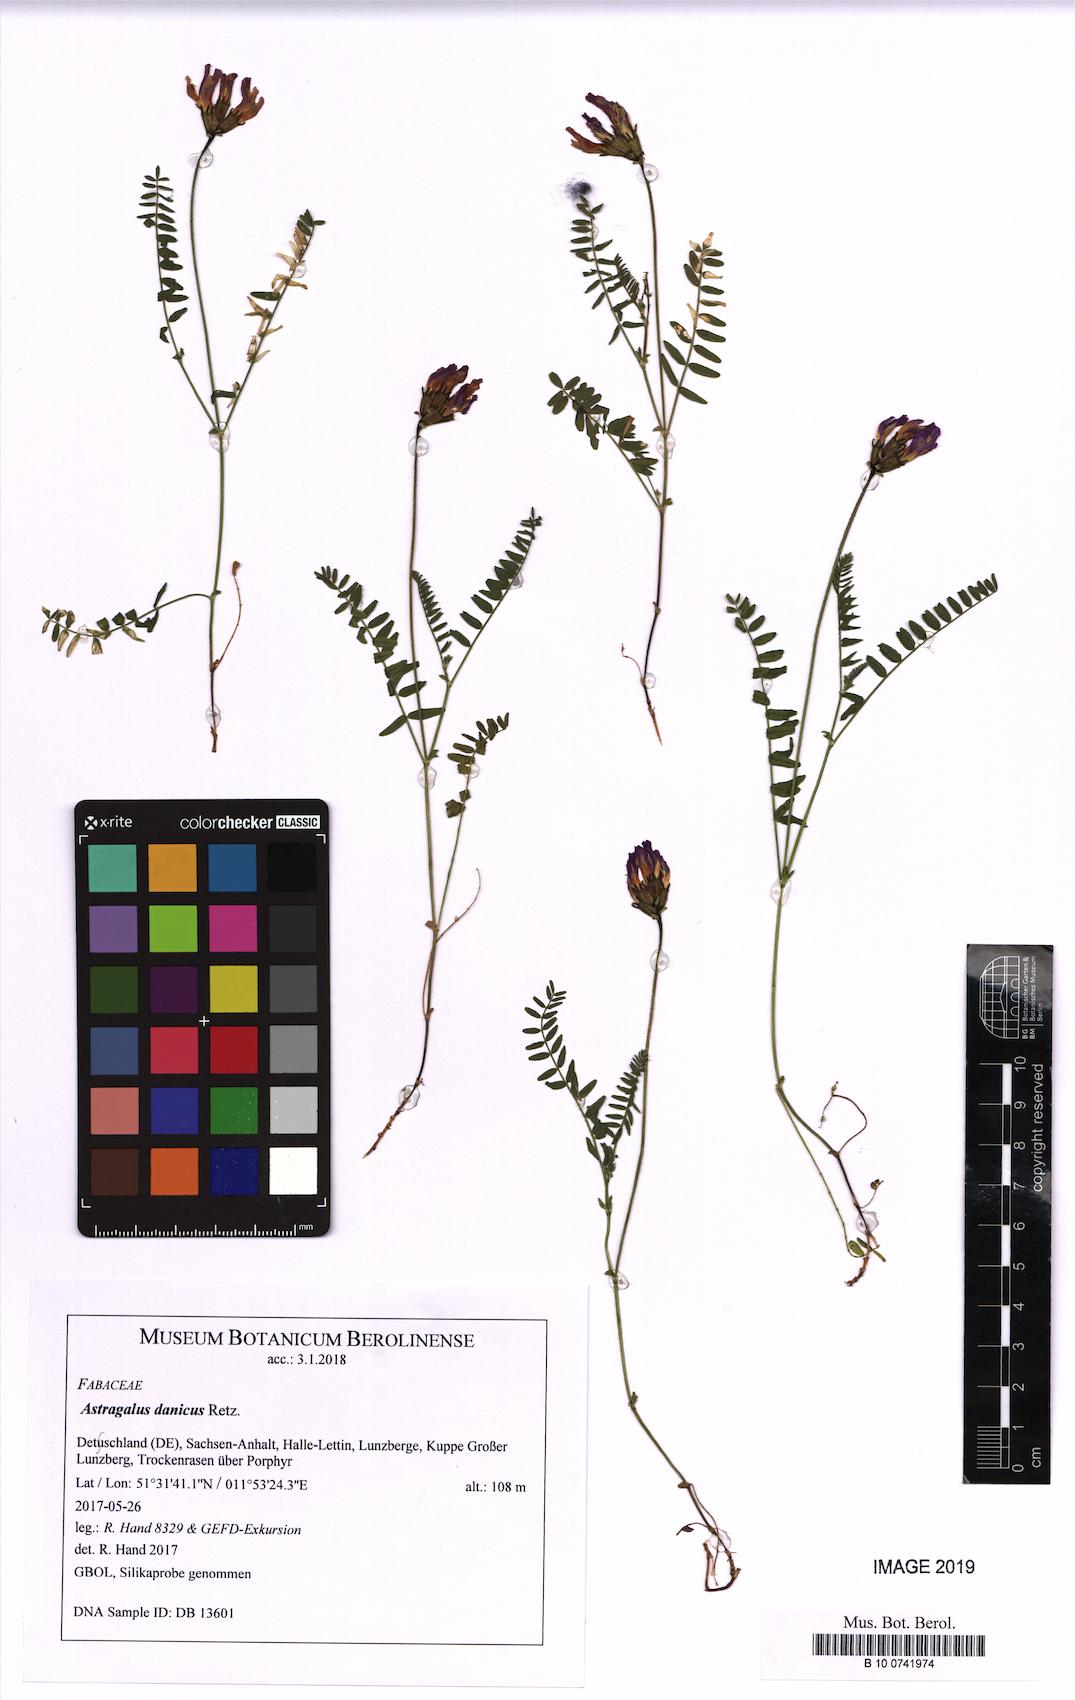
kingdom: Plantae
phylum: Tracheophyta
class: Magnoliopsida
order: Fabales
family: Fabaceae
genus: Astragalus
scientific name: Astragalus danicus
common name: Purple milk-vetch
